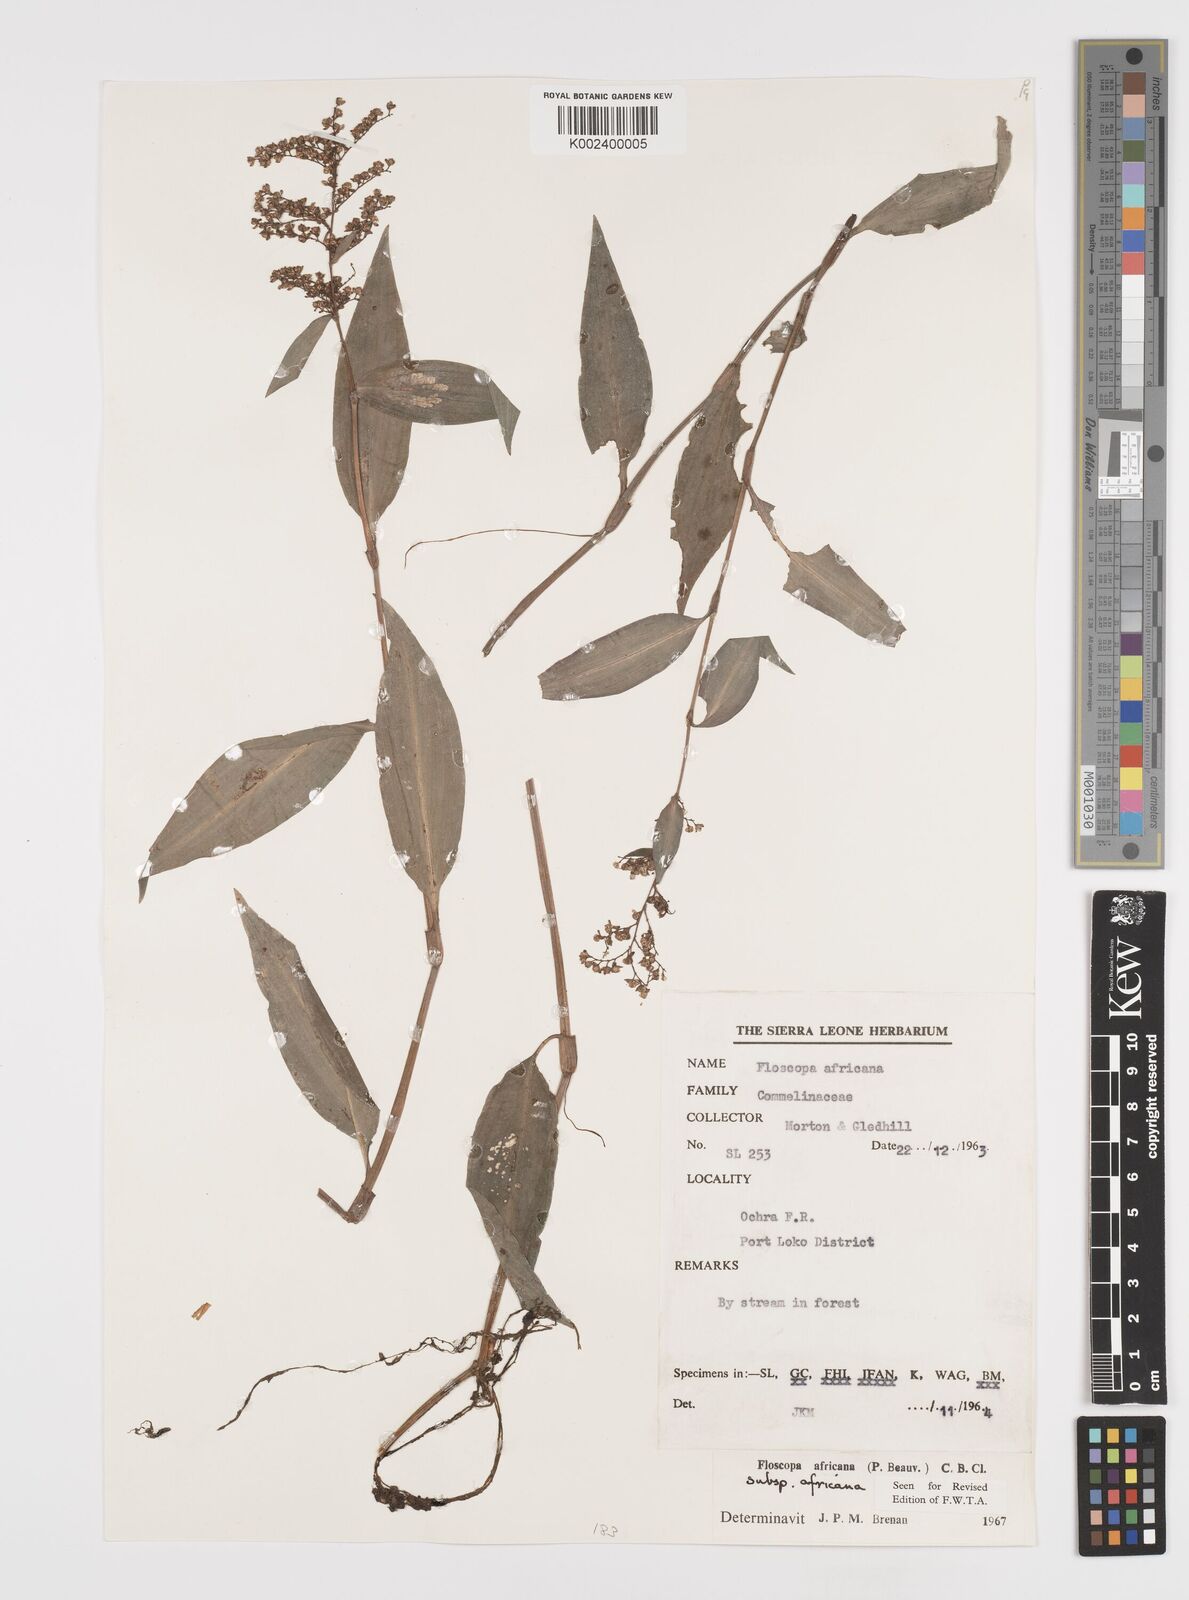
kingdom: Plantae
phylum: Tracheophyta
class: Liliopsida
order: Commelinales
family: Commelinaceae
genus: Floscopa
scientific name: Floscopa africana
